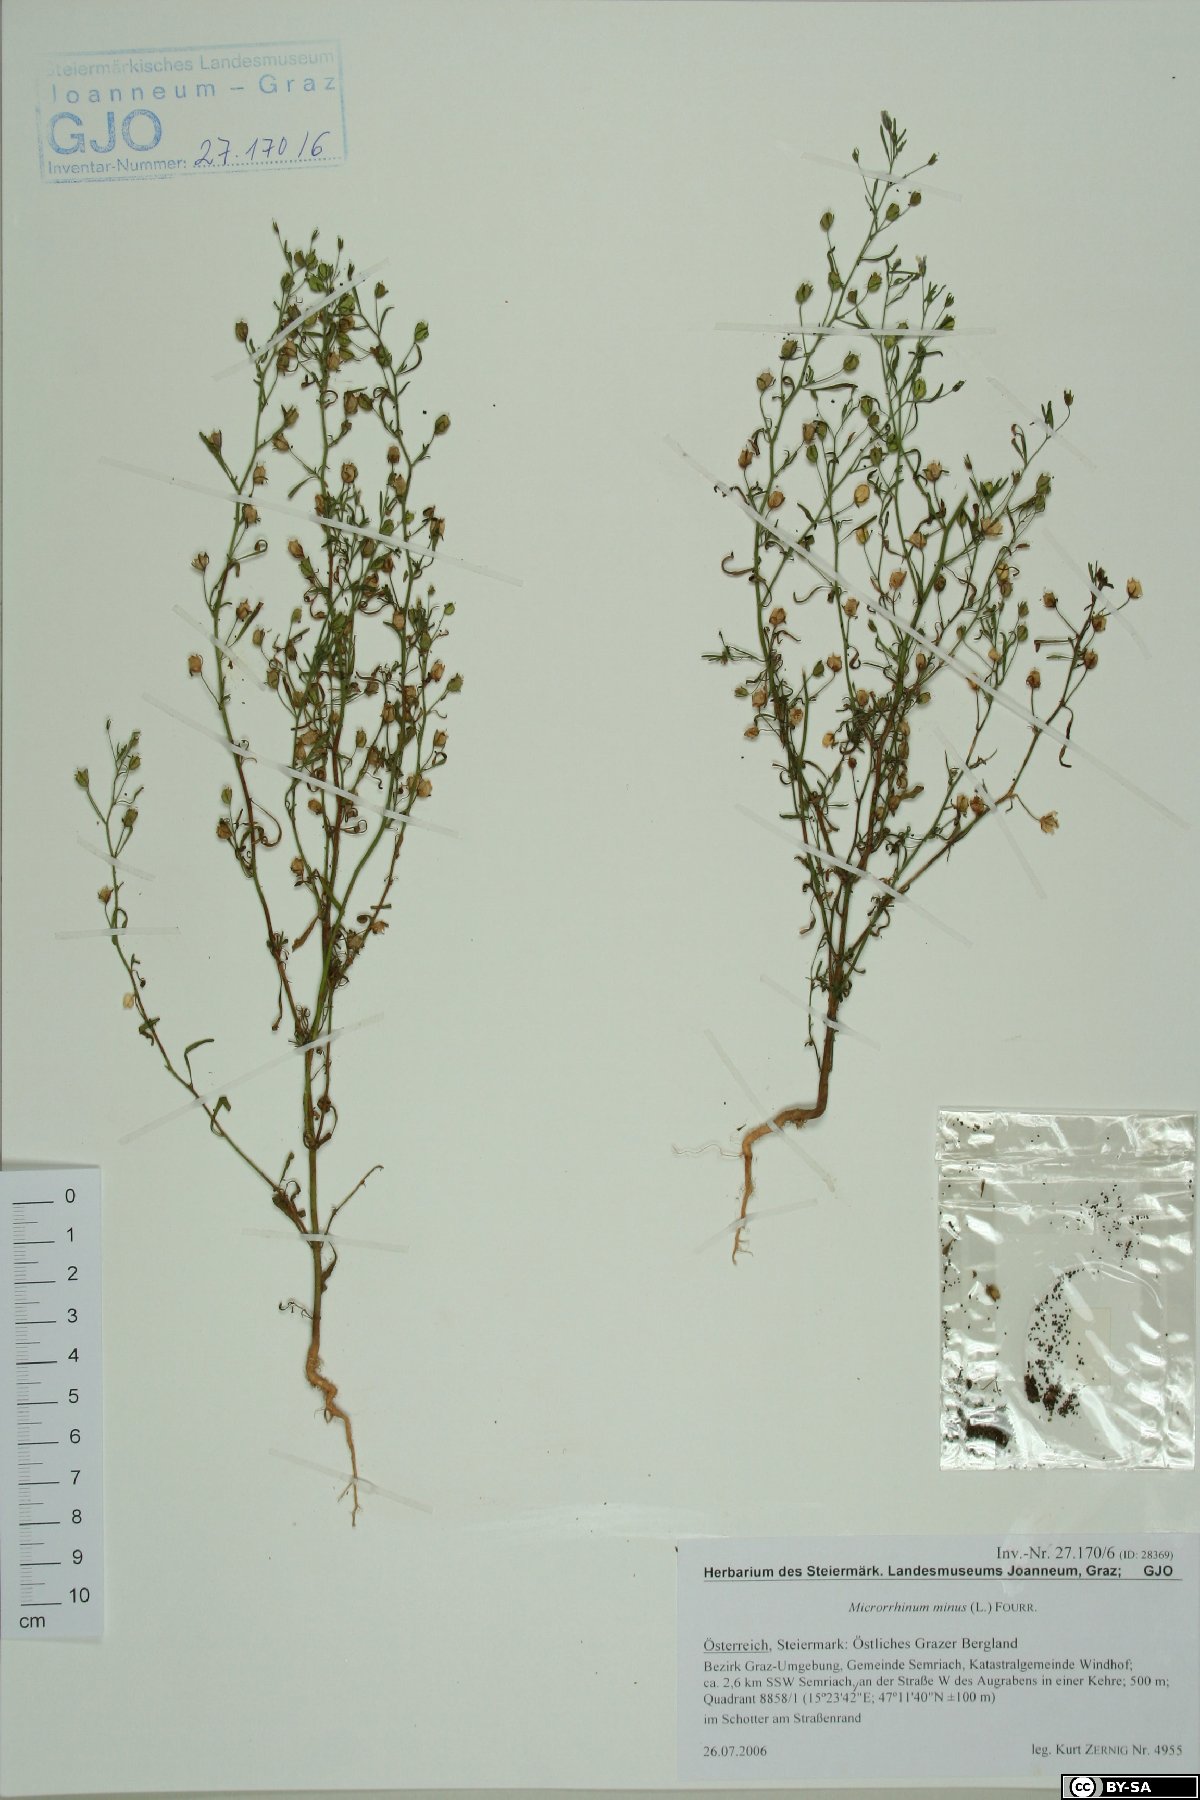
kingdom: Plantae
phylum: Tracheophyta
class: Magnoliopsida
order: Lamiales
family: Plantaginaceae
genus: Chaenorhinum
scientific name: Chaenorhinum minus
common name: Dwarf snapdragon
